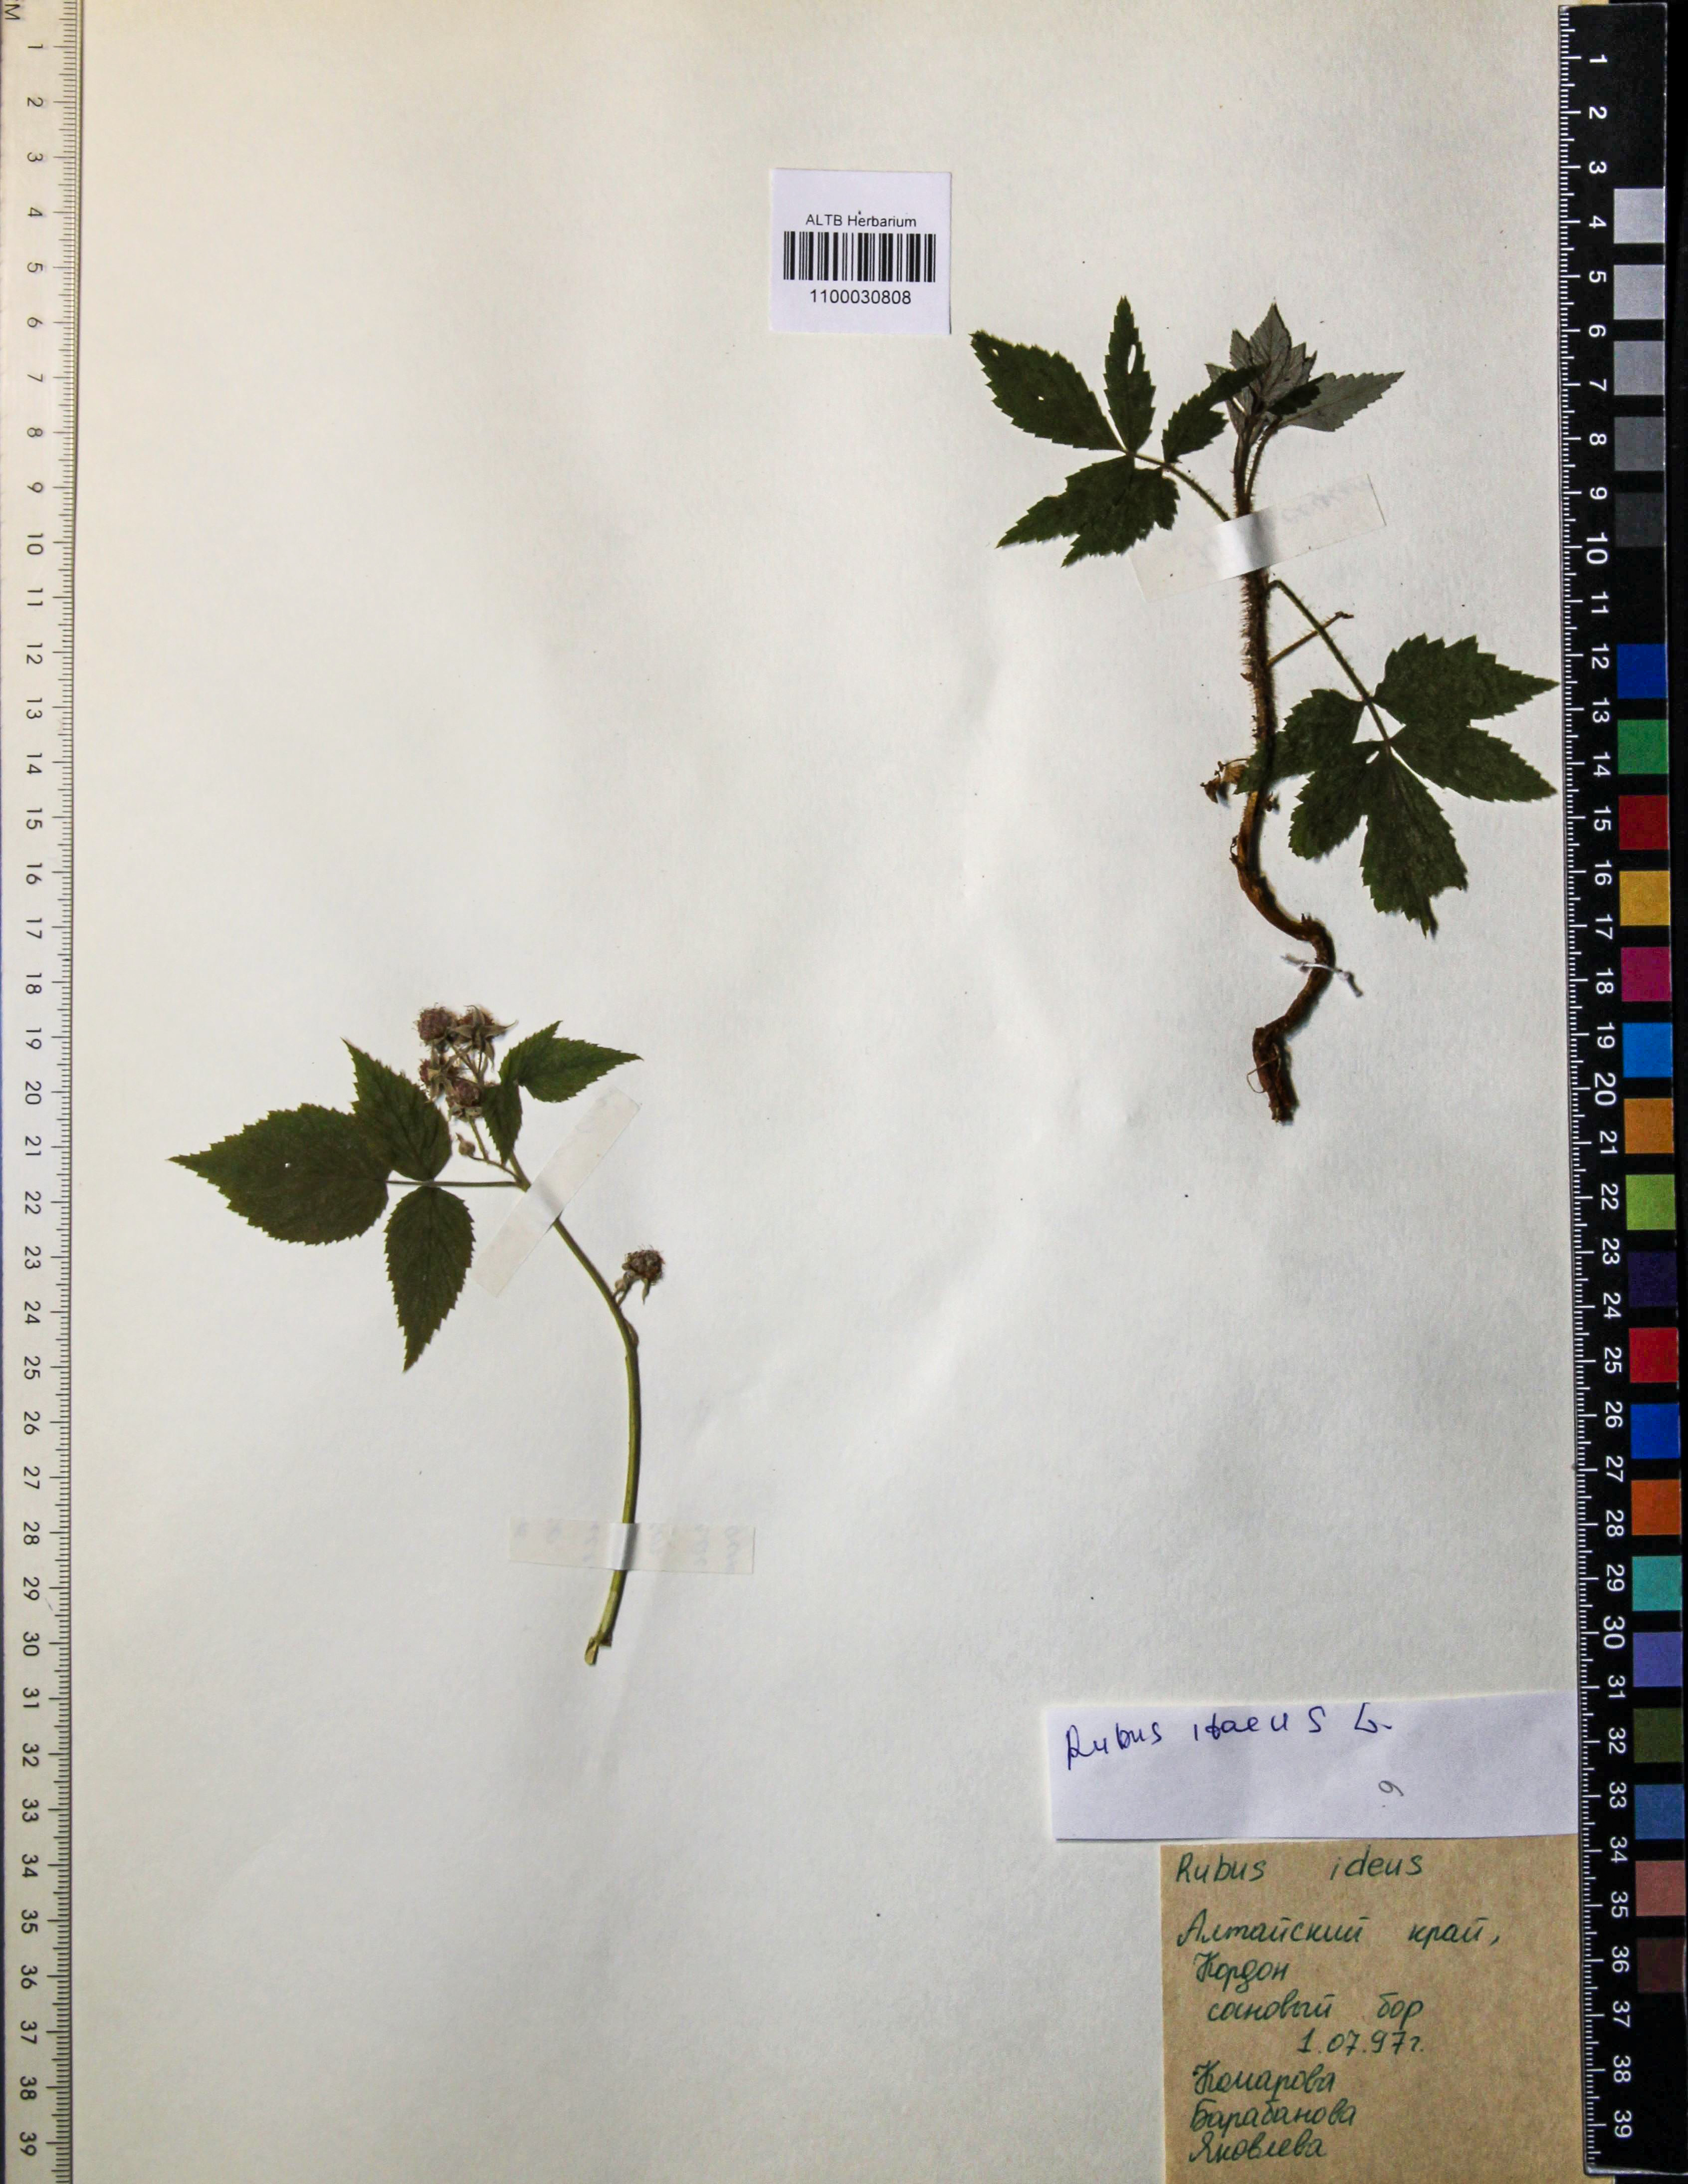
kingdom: Plantae
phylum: Tracheophyta
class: Magnoliopsida
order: Rosales
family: Rosaceae
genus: Rubus
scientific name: Rubus idaeus
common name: Raspberry
